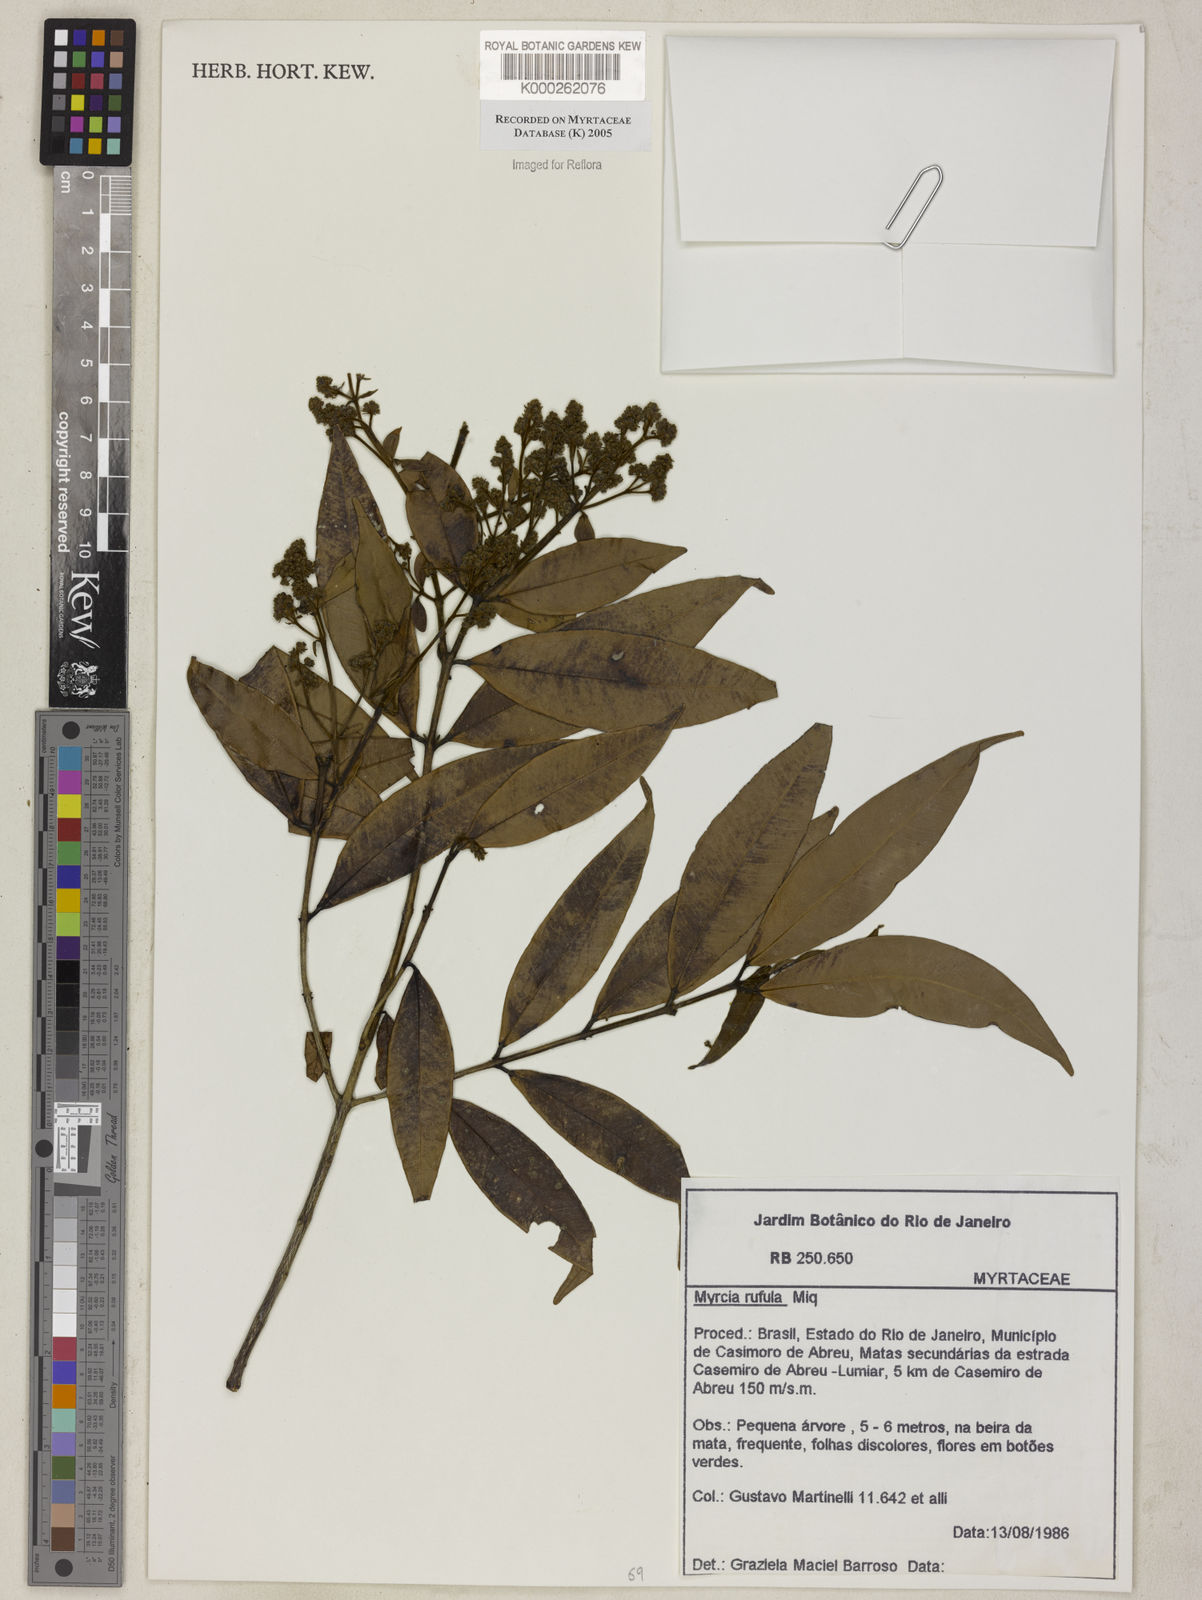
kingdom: Plantae
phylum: Tracheophyta
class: Magnoliopsida
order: Myrtales
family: Myrtaceae
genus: Myrcia
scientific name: Myrcia splendens
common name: Surinam cherry
